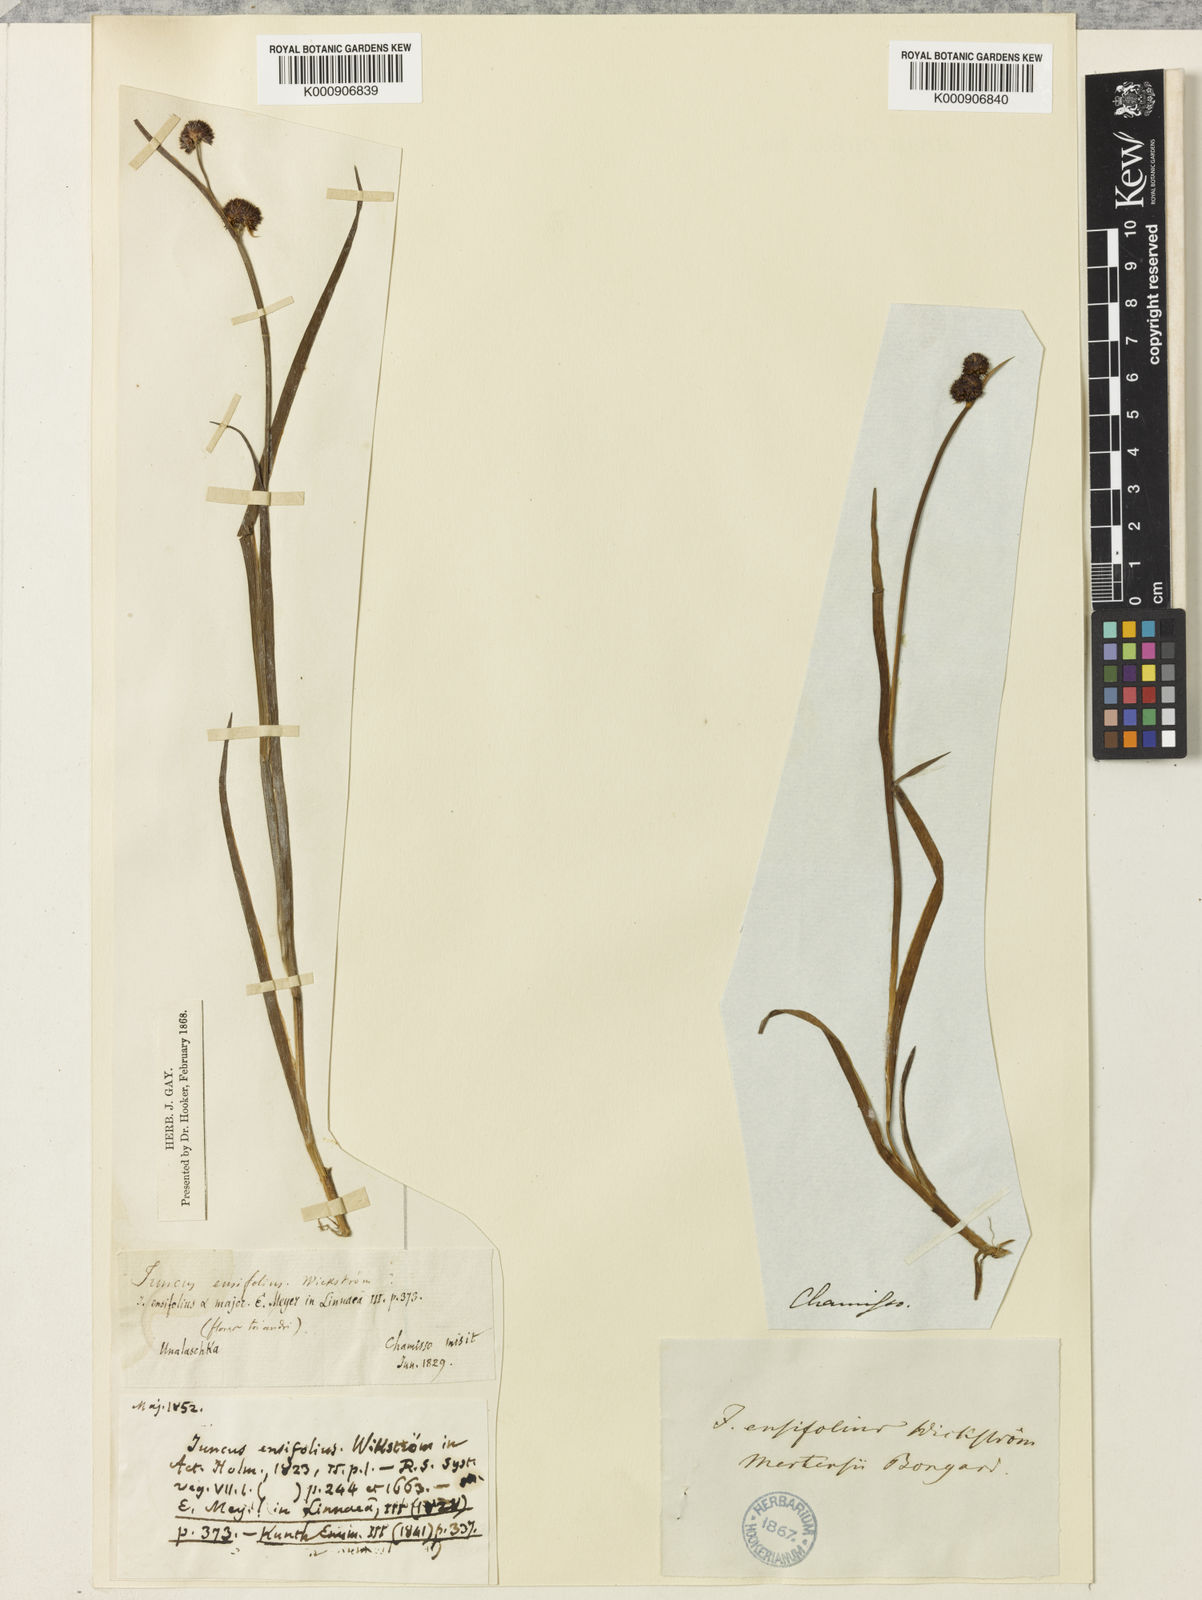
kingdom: Plantae
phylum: Tracheophyta
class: Liliopsida
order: Poales
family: Juncaceae
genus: Juncus
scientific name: Juncus mertensianus
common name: Merten's rush
